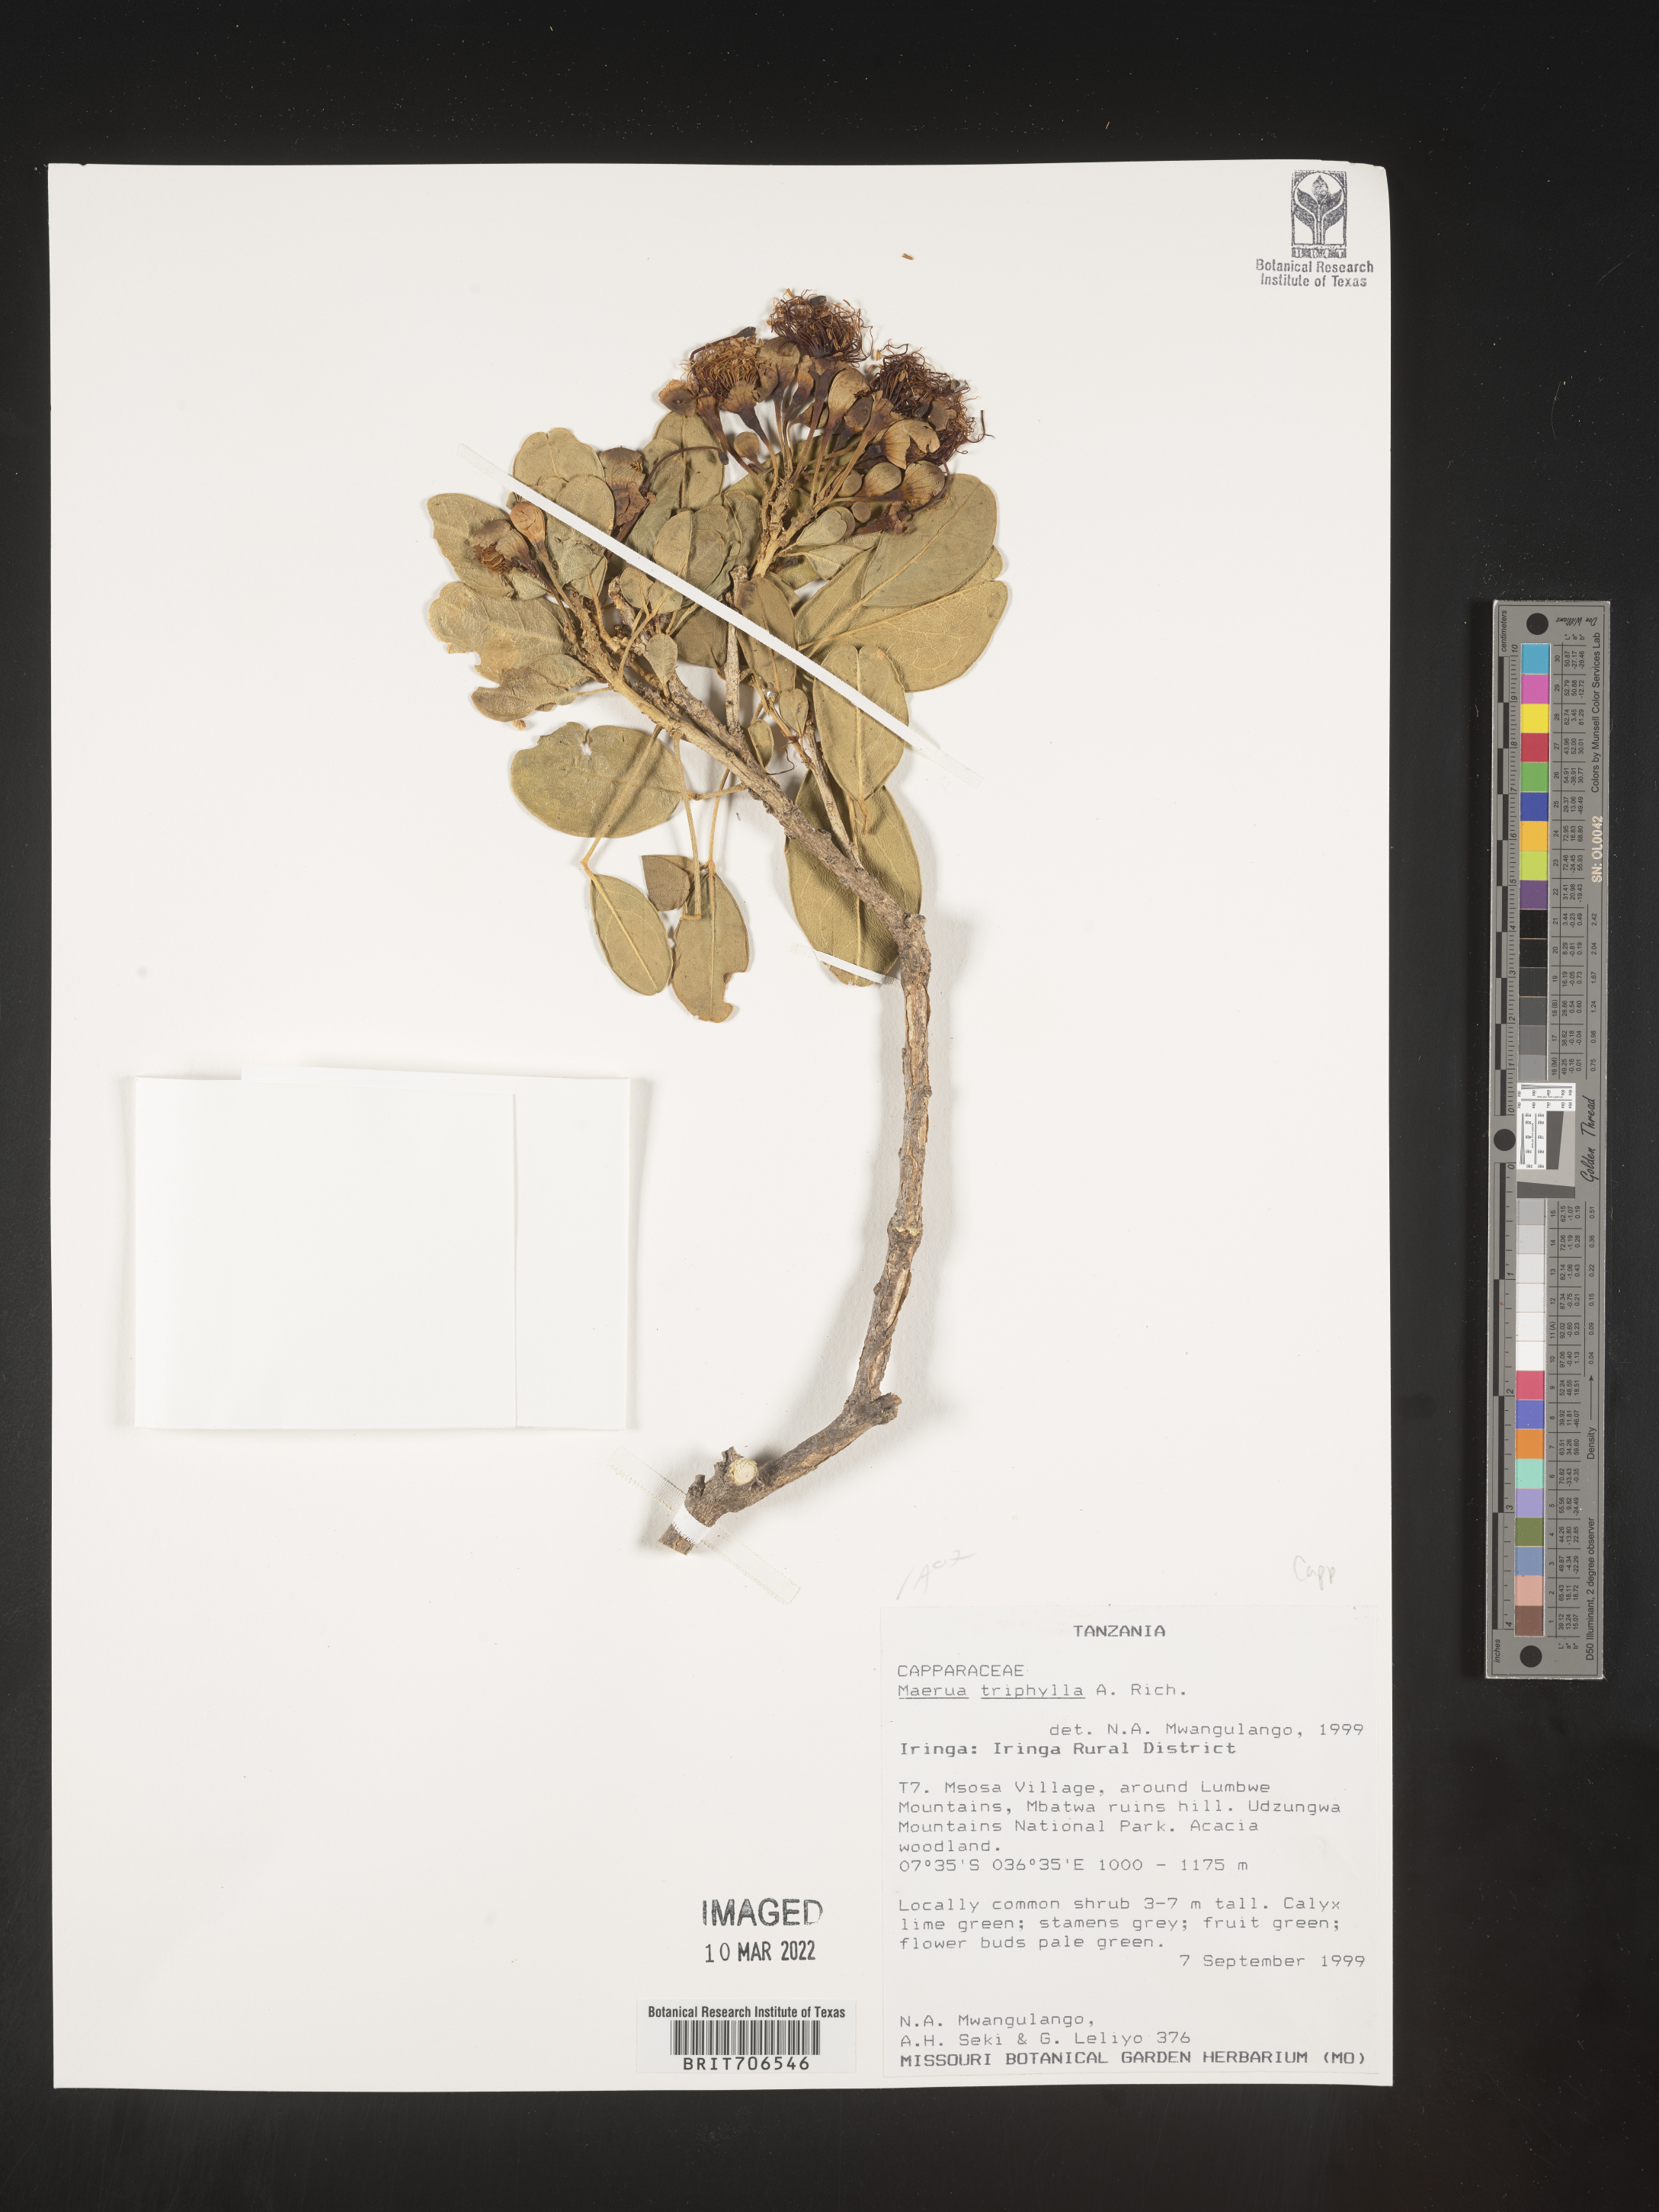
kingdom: Plantae
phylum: Tracheophyta
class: Magnoliopsida
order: Brassicales
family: Capparaceae
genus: Maerua
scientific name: Maerua
